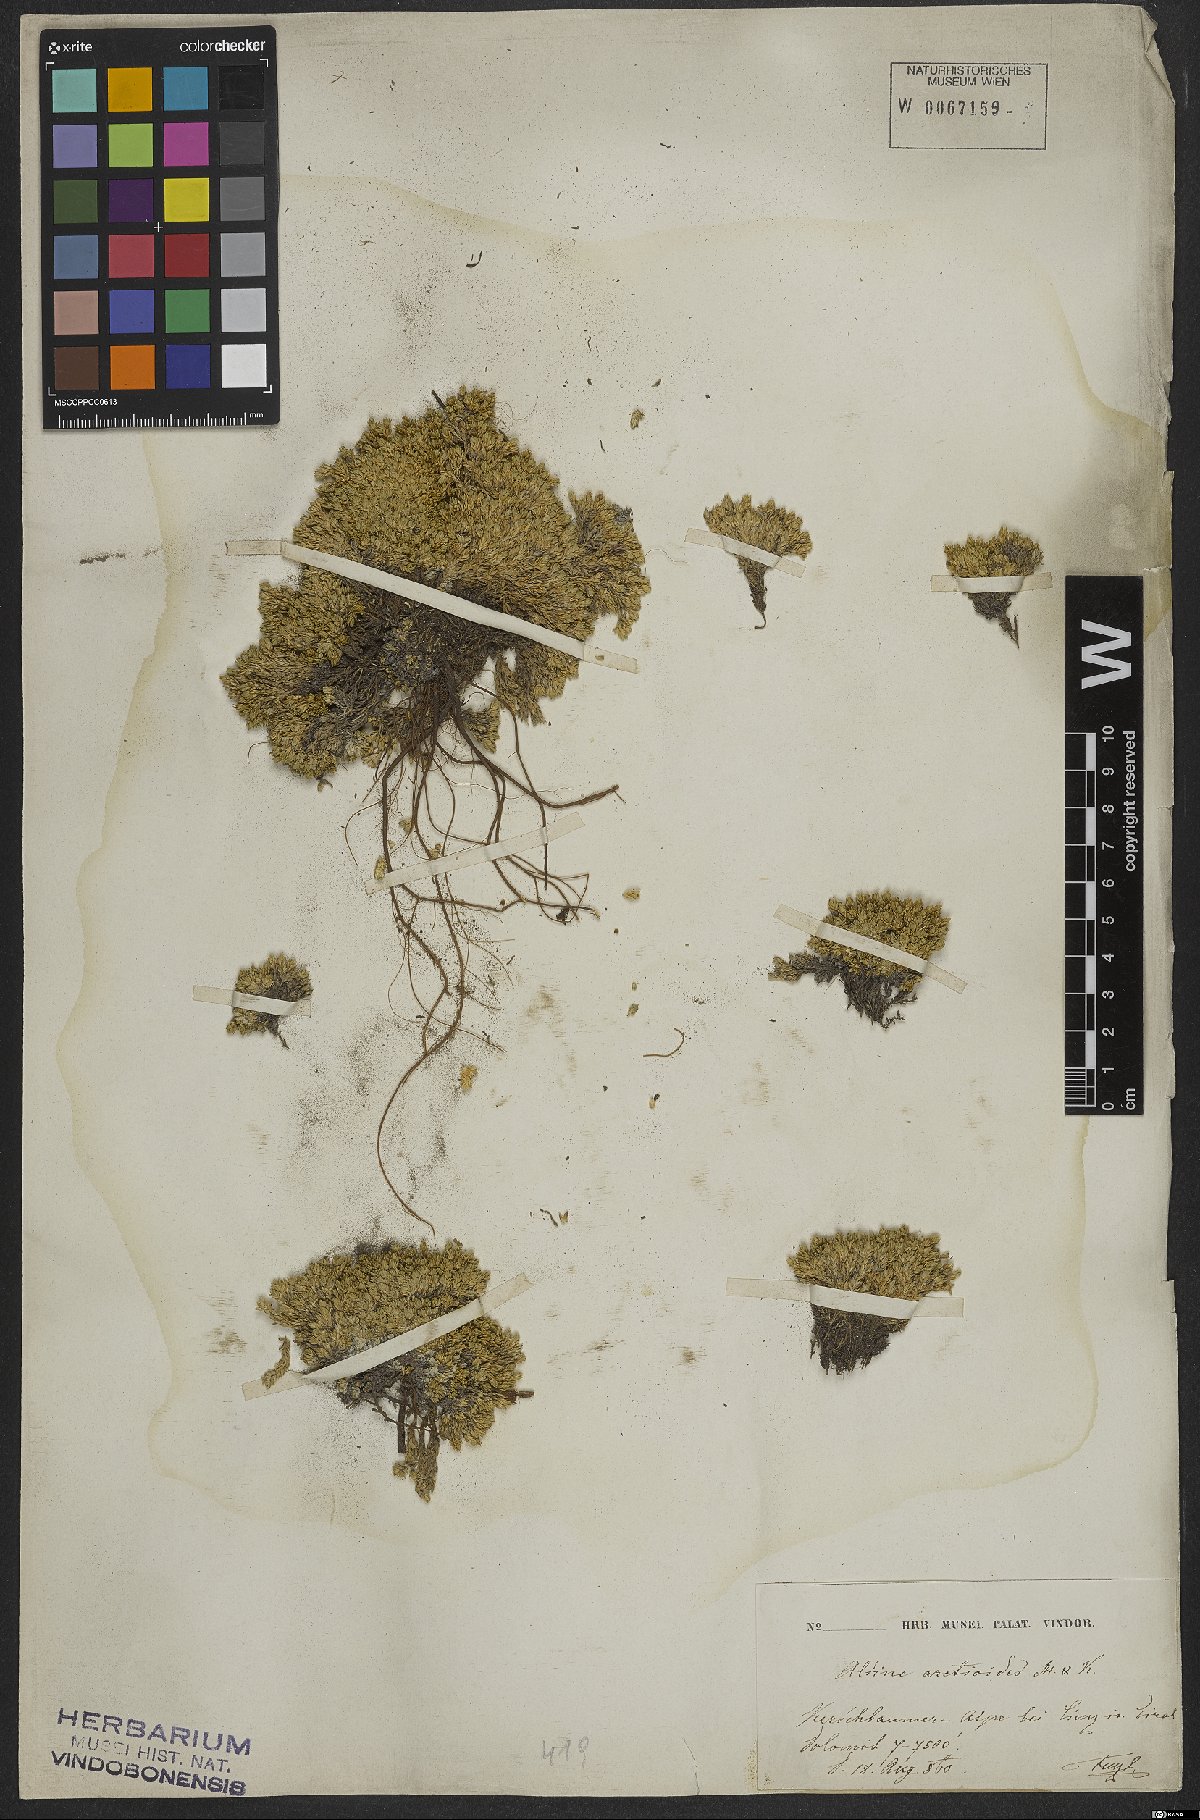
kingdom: Plantae
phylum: Tracheophyta
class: Magnoliopsida
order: Caryophyllales
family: Caryophyllaceae
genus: Facchinia
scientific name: Facchinia cherlerioides
